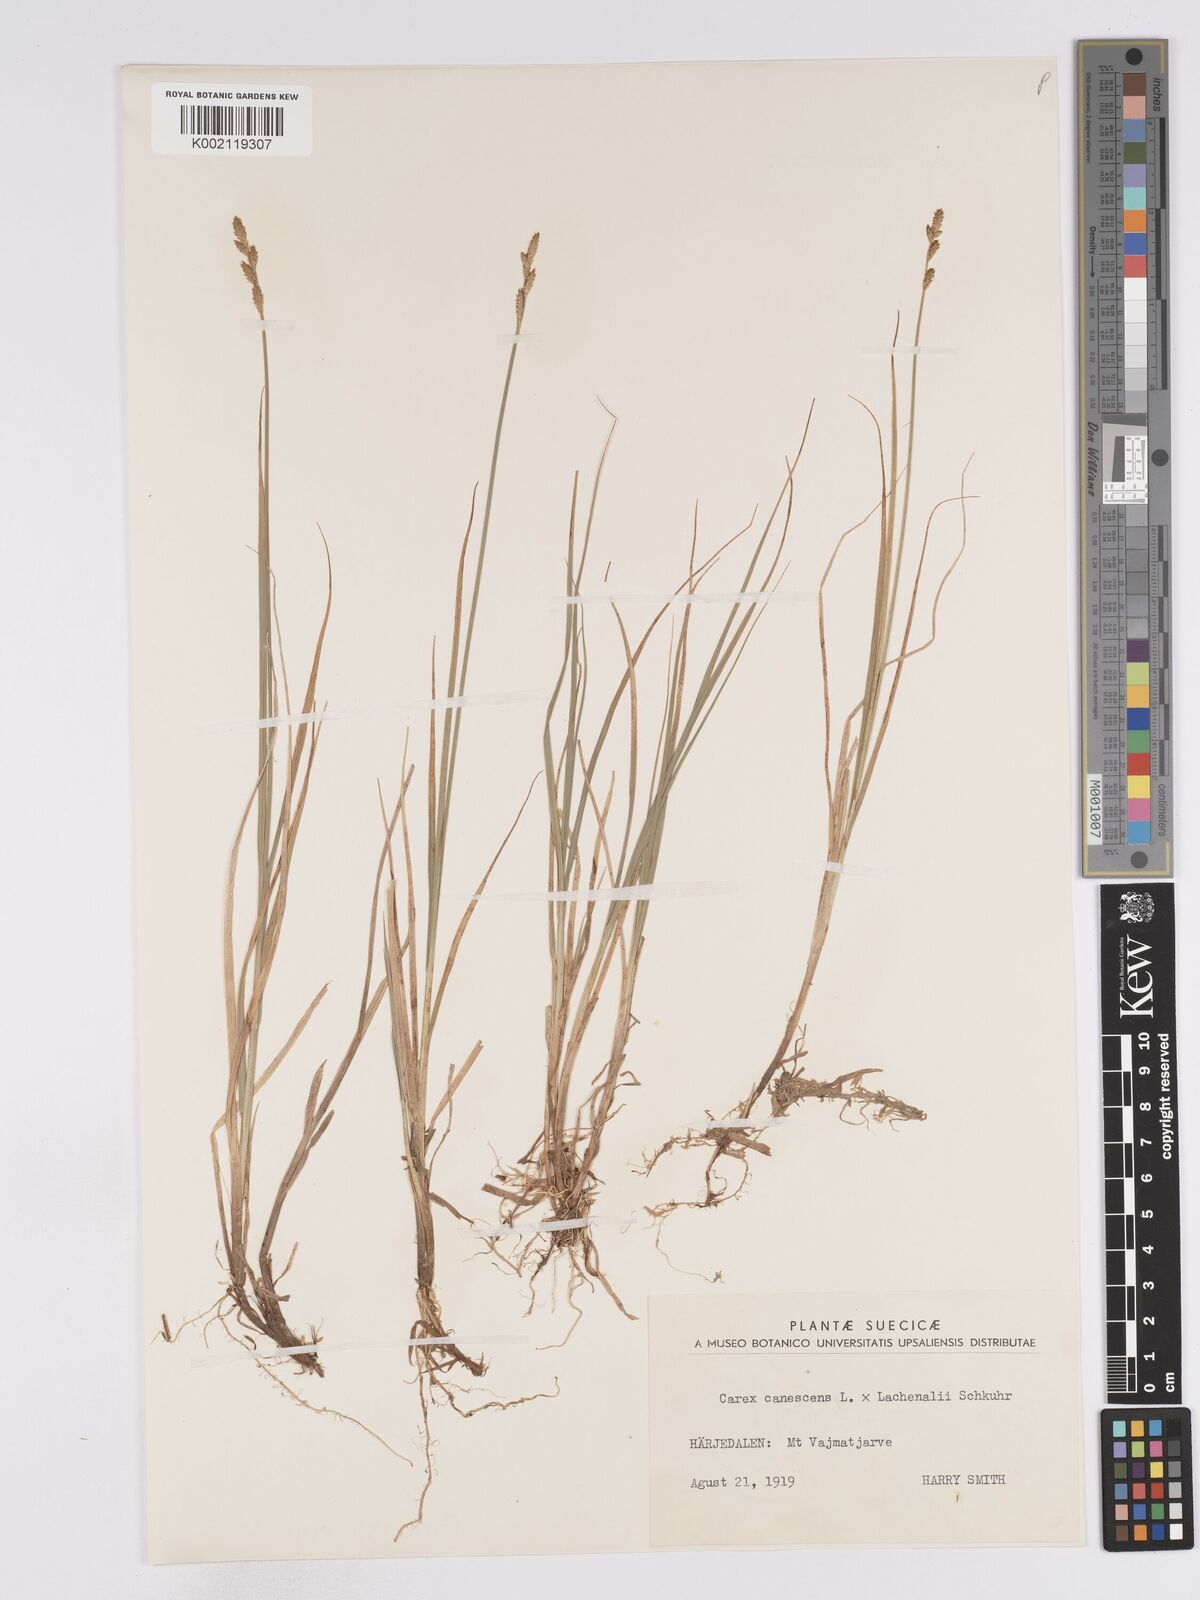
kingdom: Plantae
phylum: Tracheophyta
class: Liliopsida
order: Poales
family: Cyperaceae
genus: Carex
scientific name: Carex
